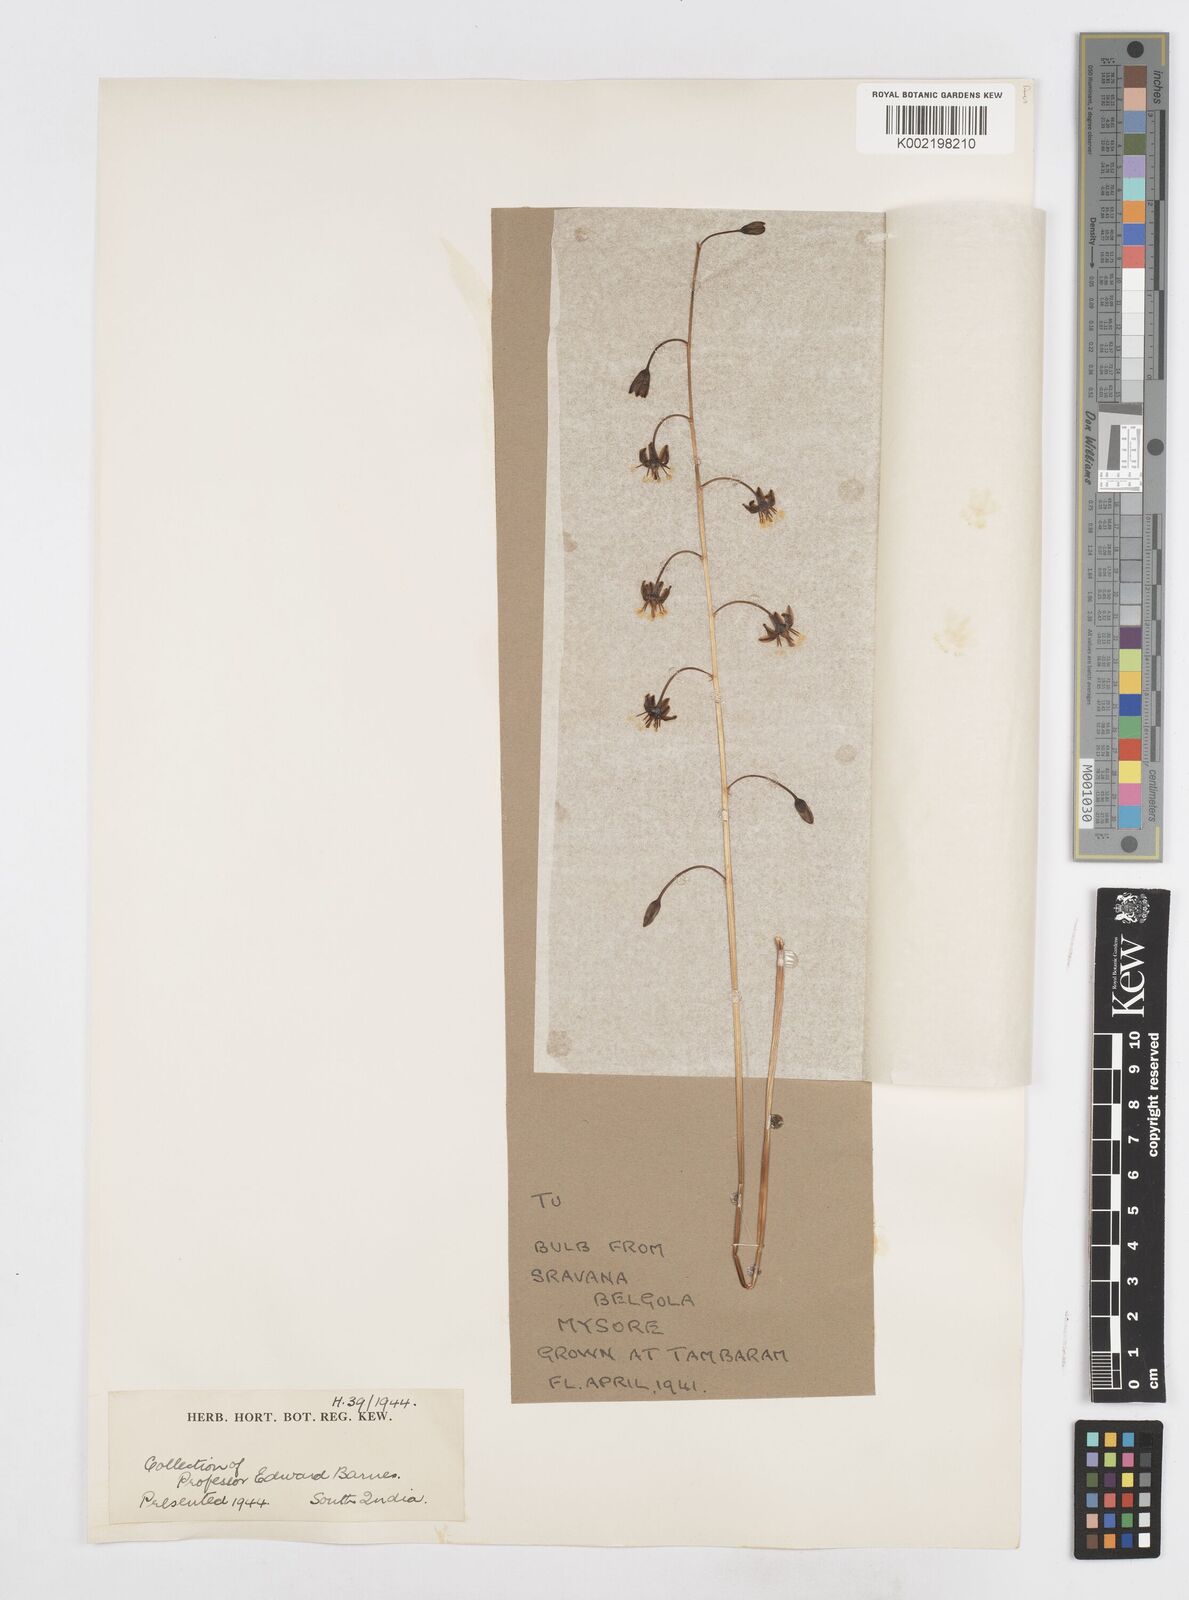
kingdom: Plantae
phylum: Tracheophyta
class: Liliopsida
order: Asparagales
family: Asparagaceae
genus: Drimia
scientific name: Drimia indica
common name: Indian-squill
